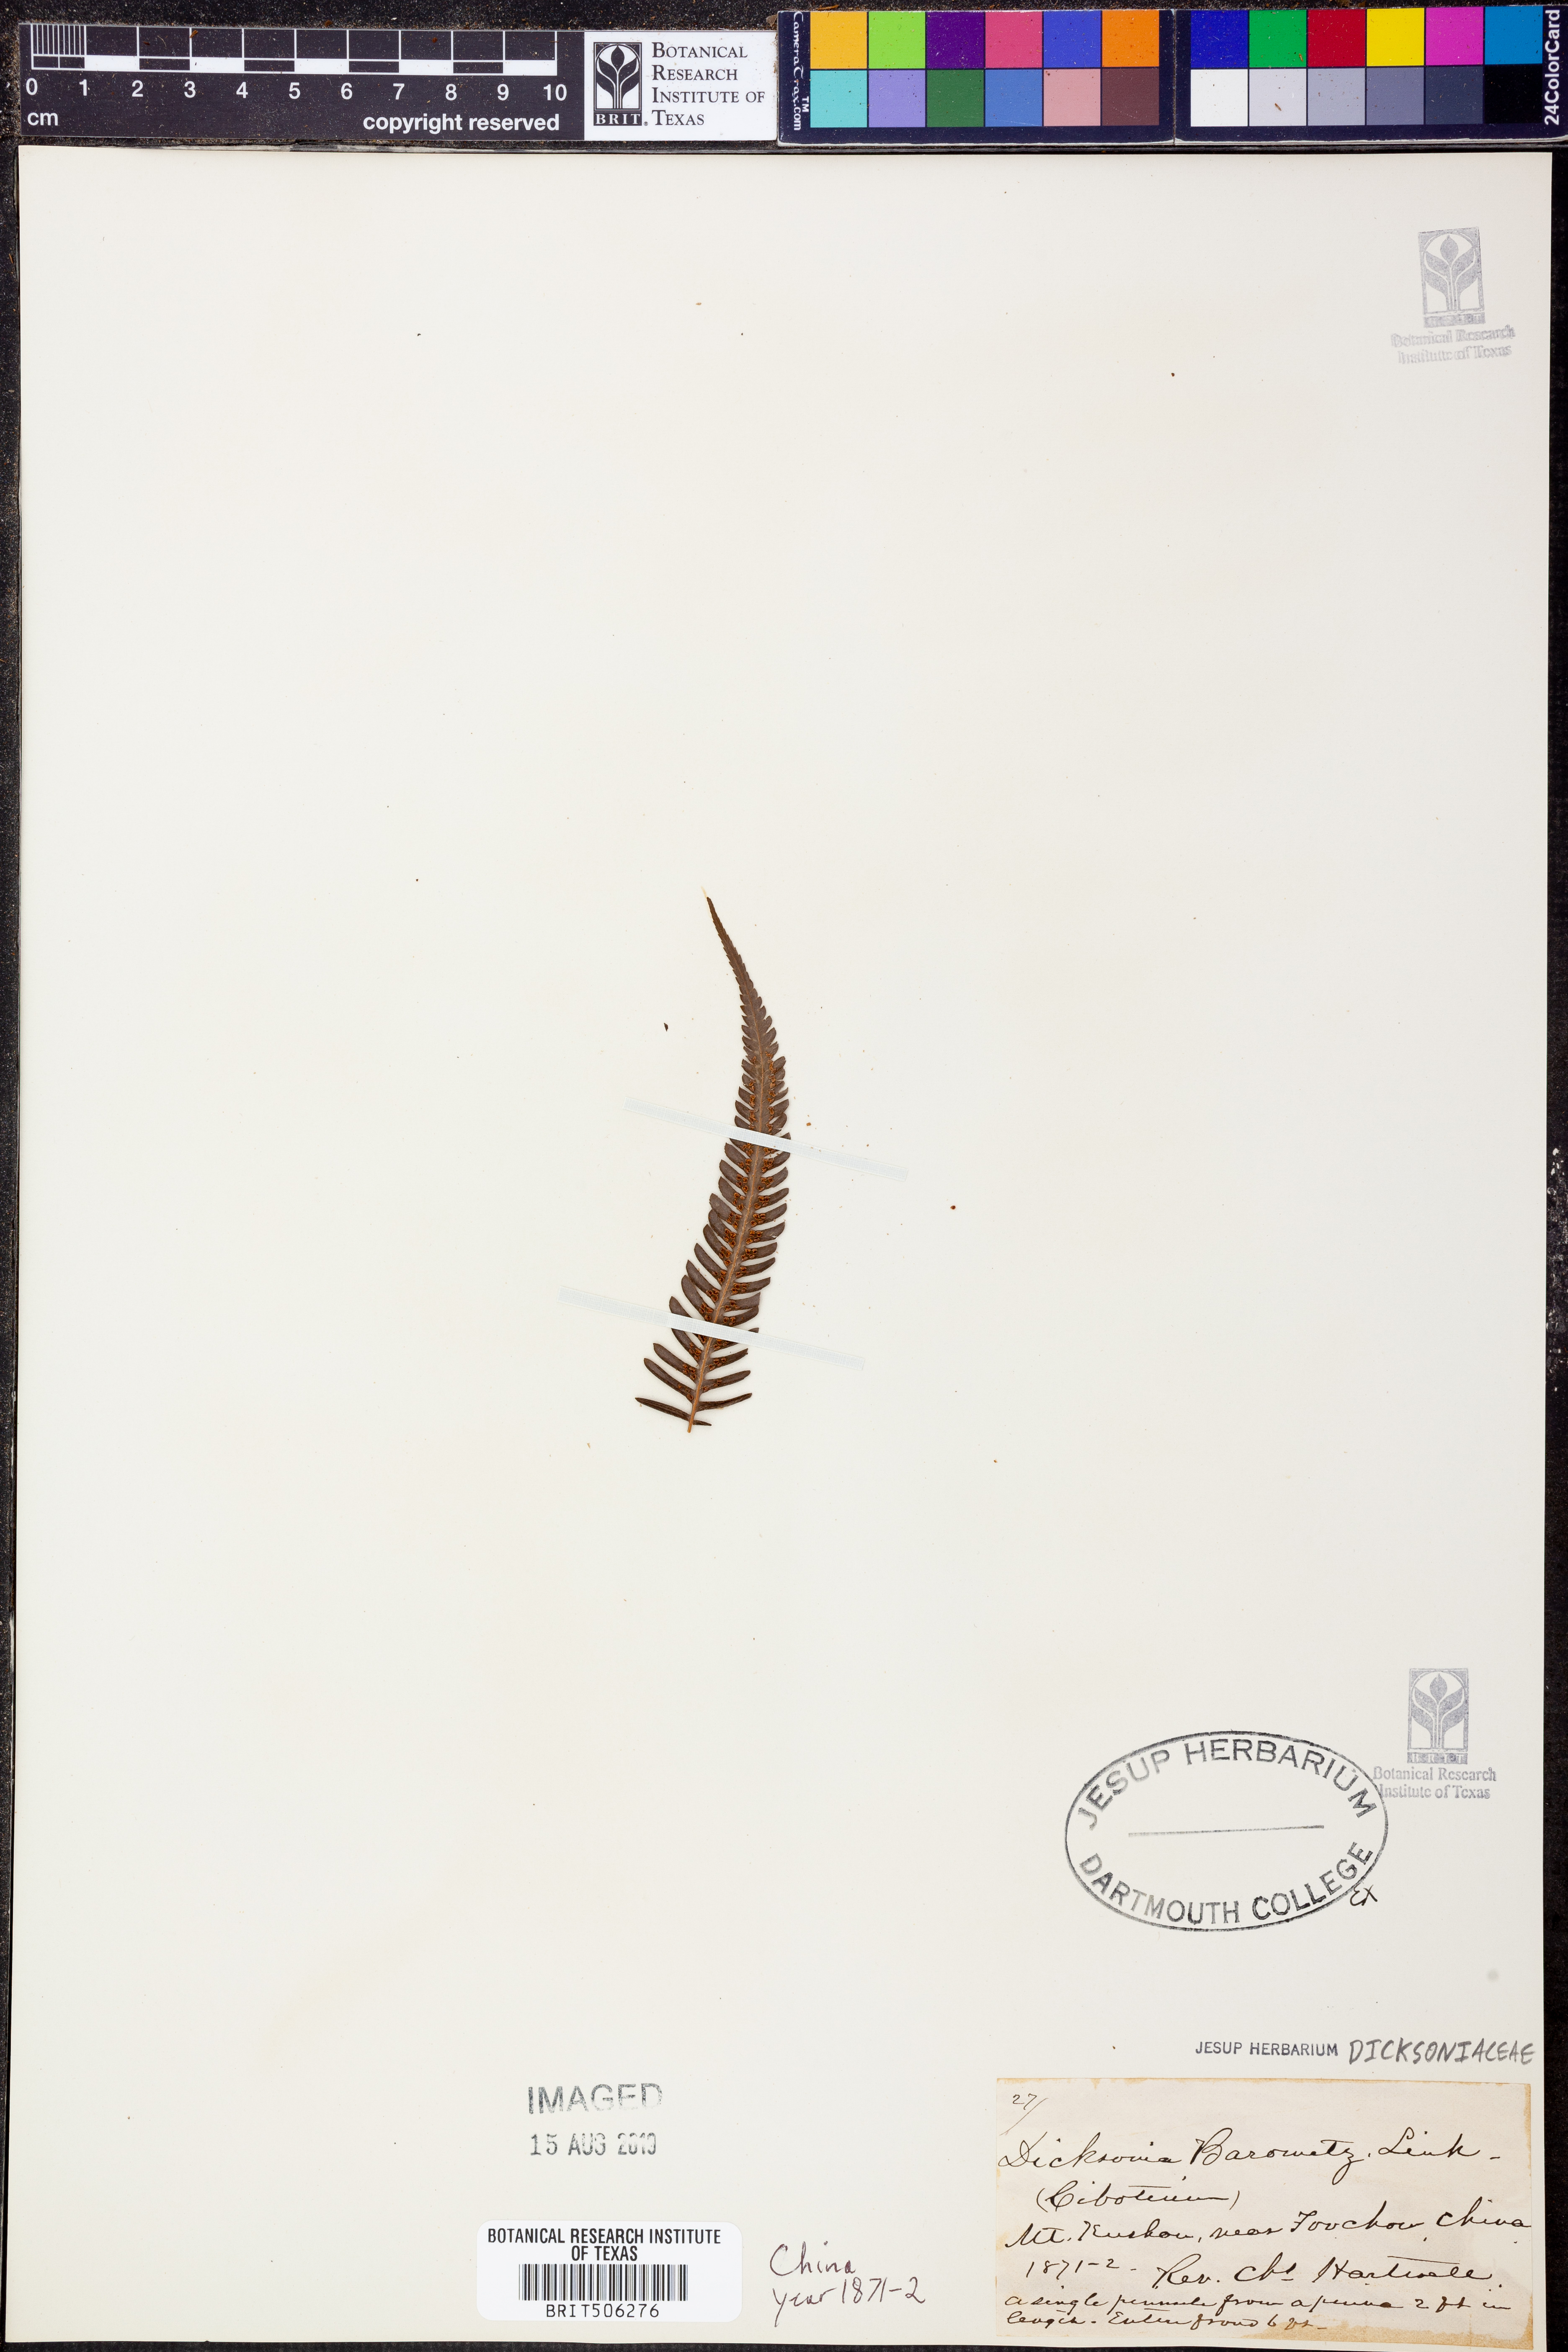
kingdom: Plantae
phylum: Tracheophyta
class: Polypodiopsida
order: Cyatheales
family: Cibotiaceae
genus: Cibotium
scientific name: Cibotium barometz
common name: Scythian-lamb
